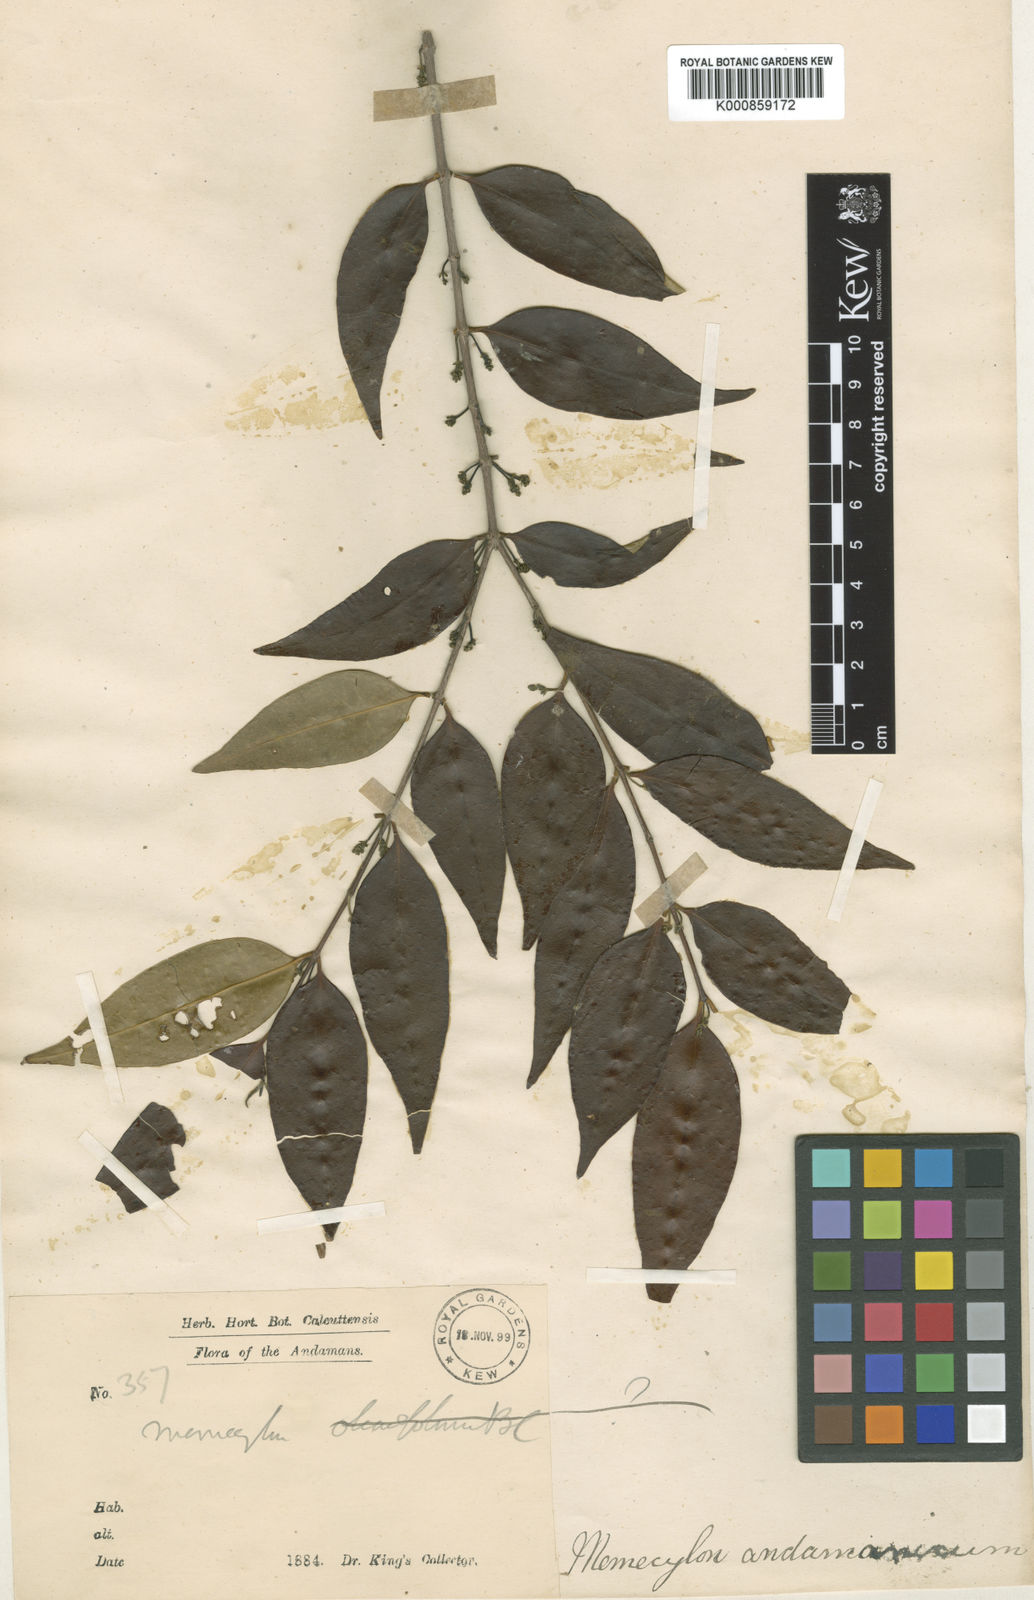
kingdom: Plantae
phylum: Tracheophyta
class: Magnoliopsida
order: Myrtales
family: Melastomataceae
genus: Memecylon
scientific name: Memecylon andamanicum
